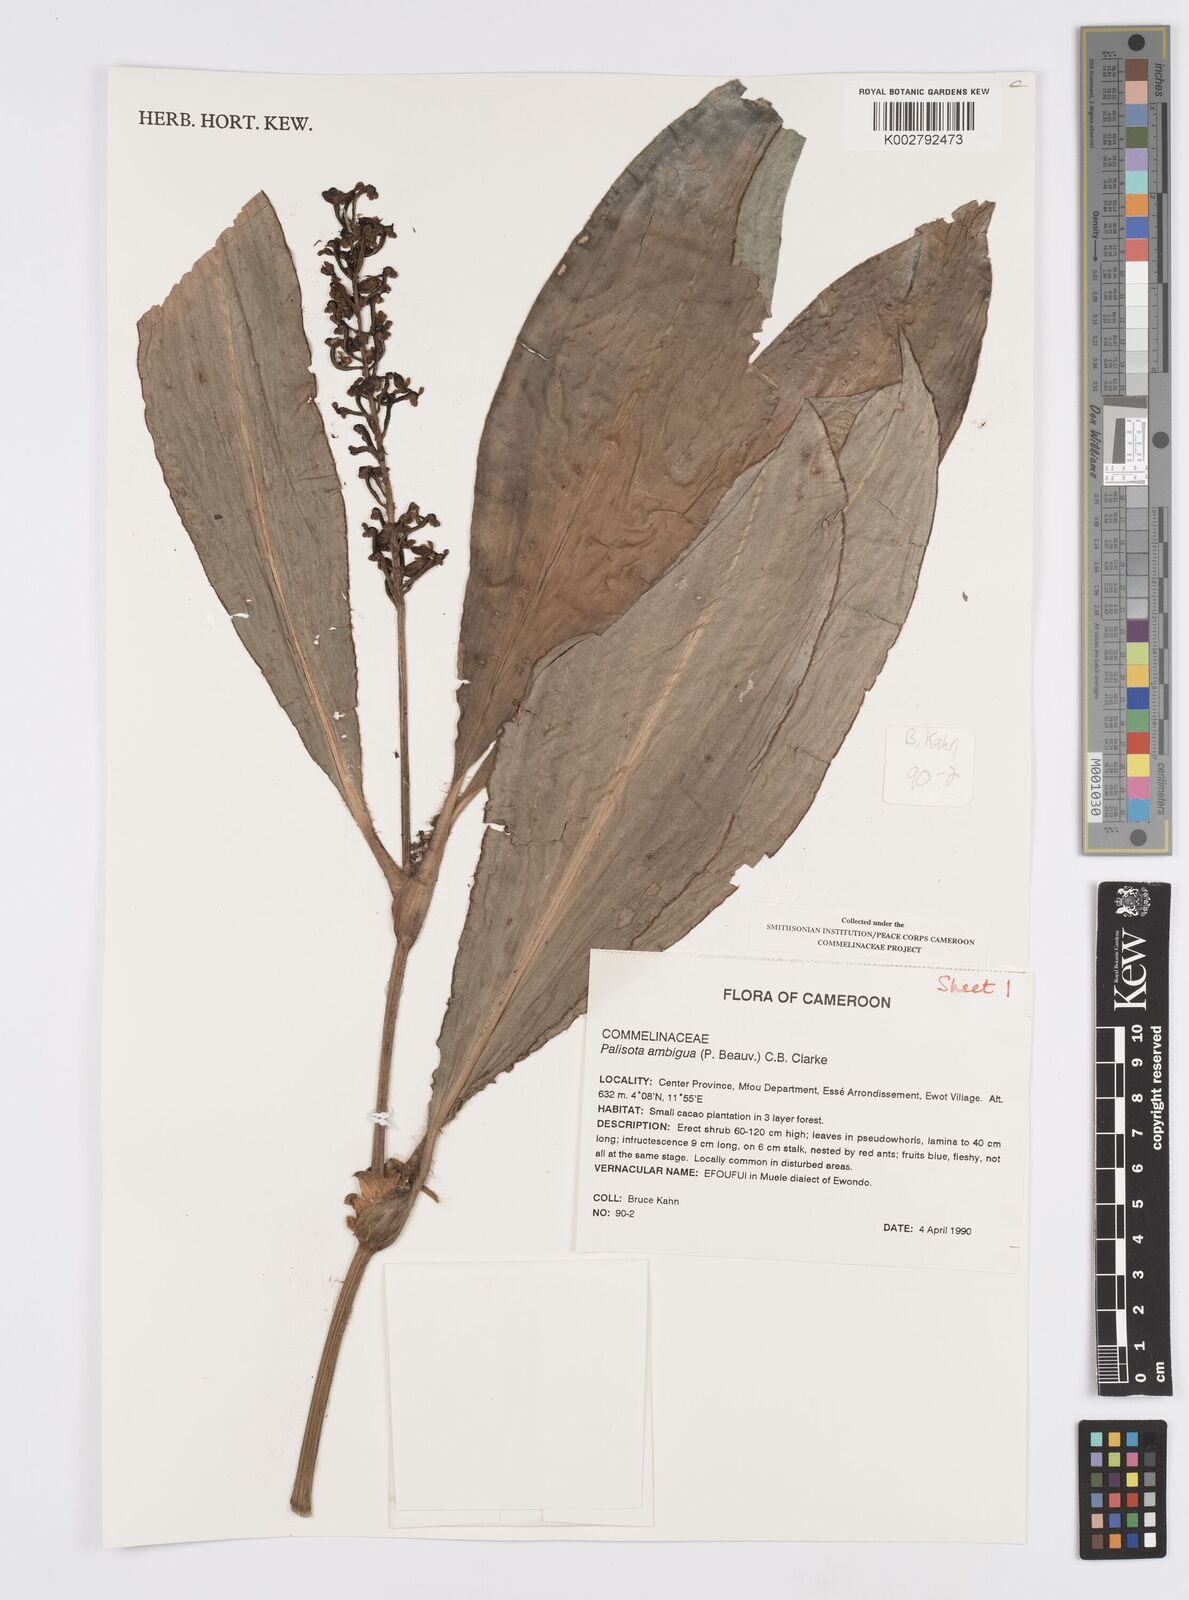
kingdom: Plantae
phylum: Tracheophyta
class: Liliopsida
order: Commelinales
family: Commelinaceae
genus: Palisota
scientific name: Palisota ambigua
